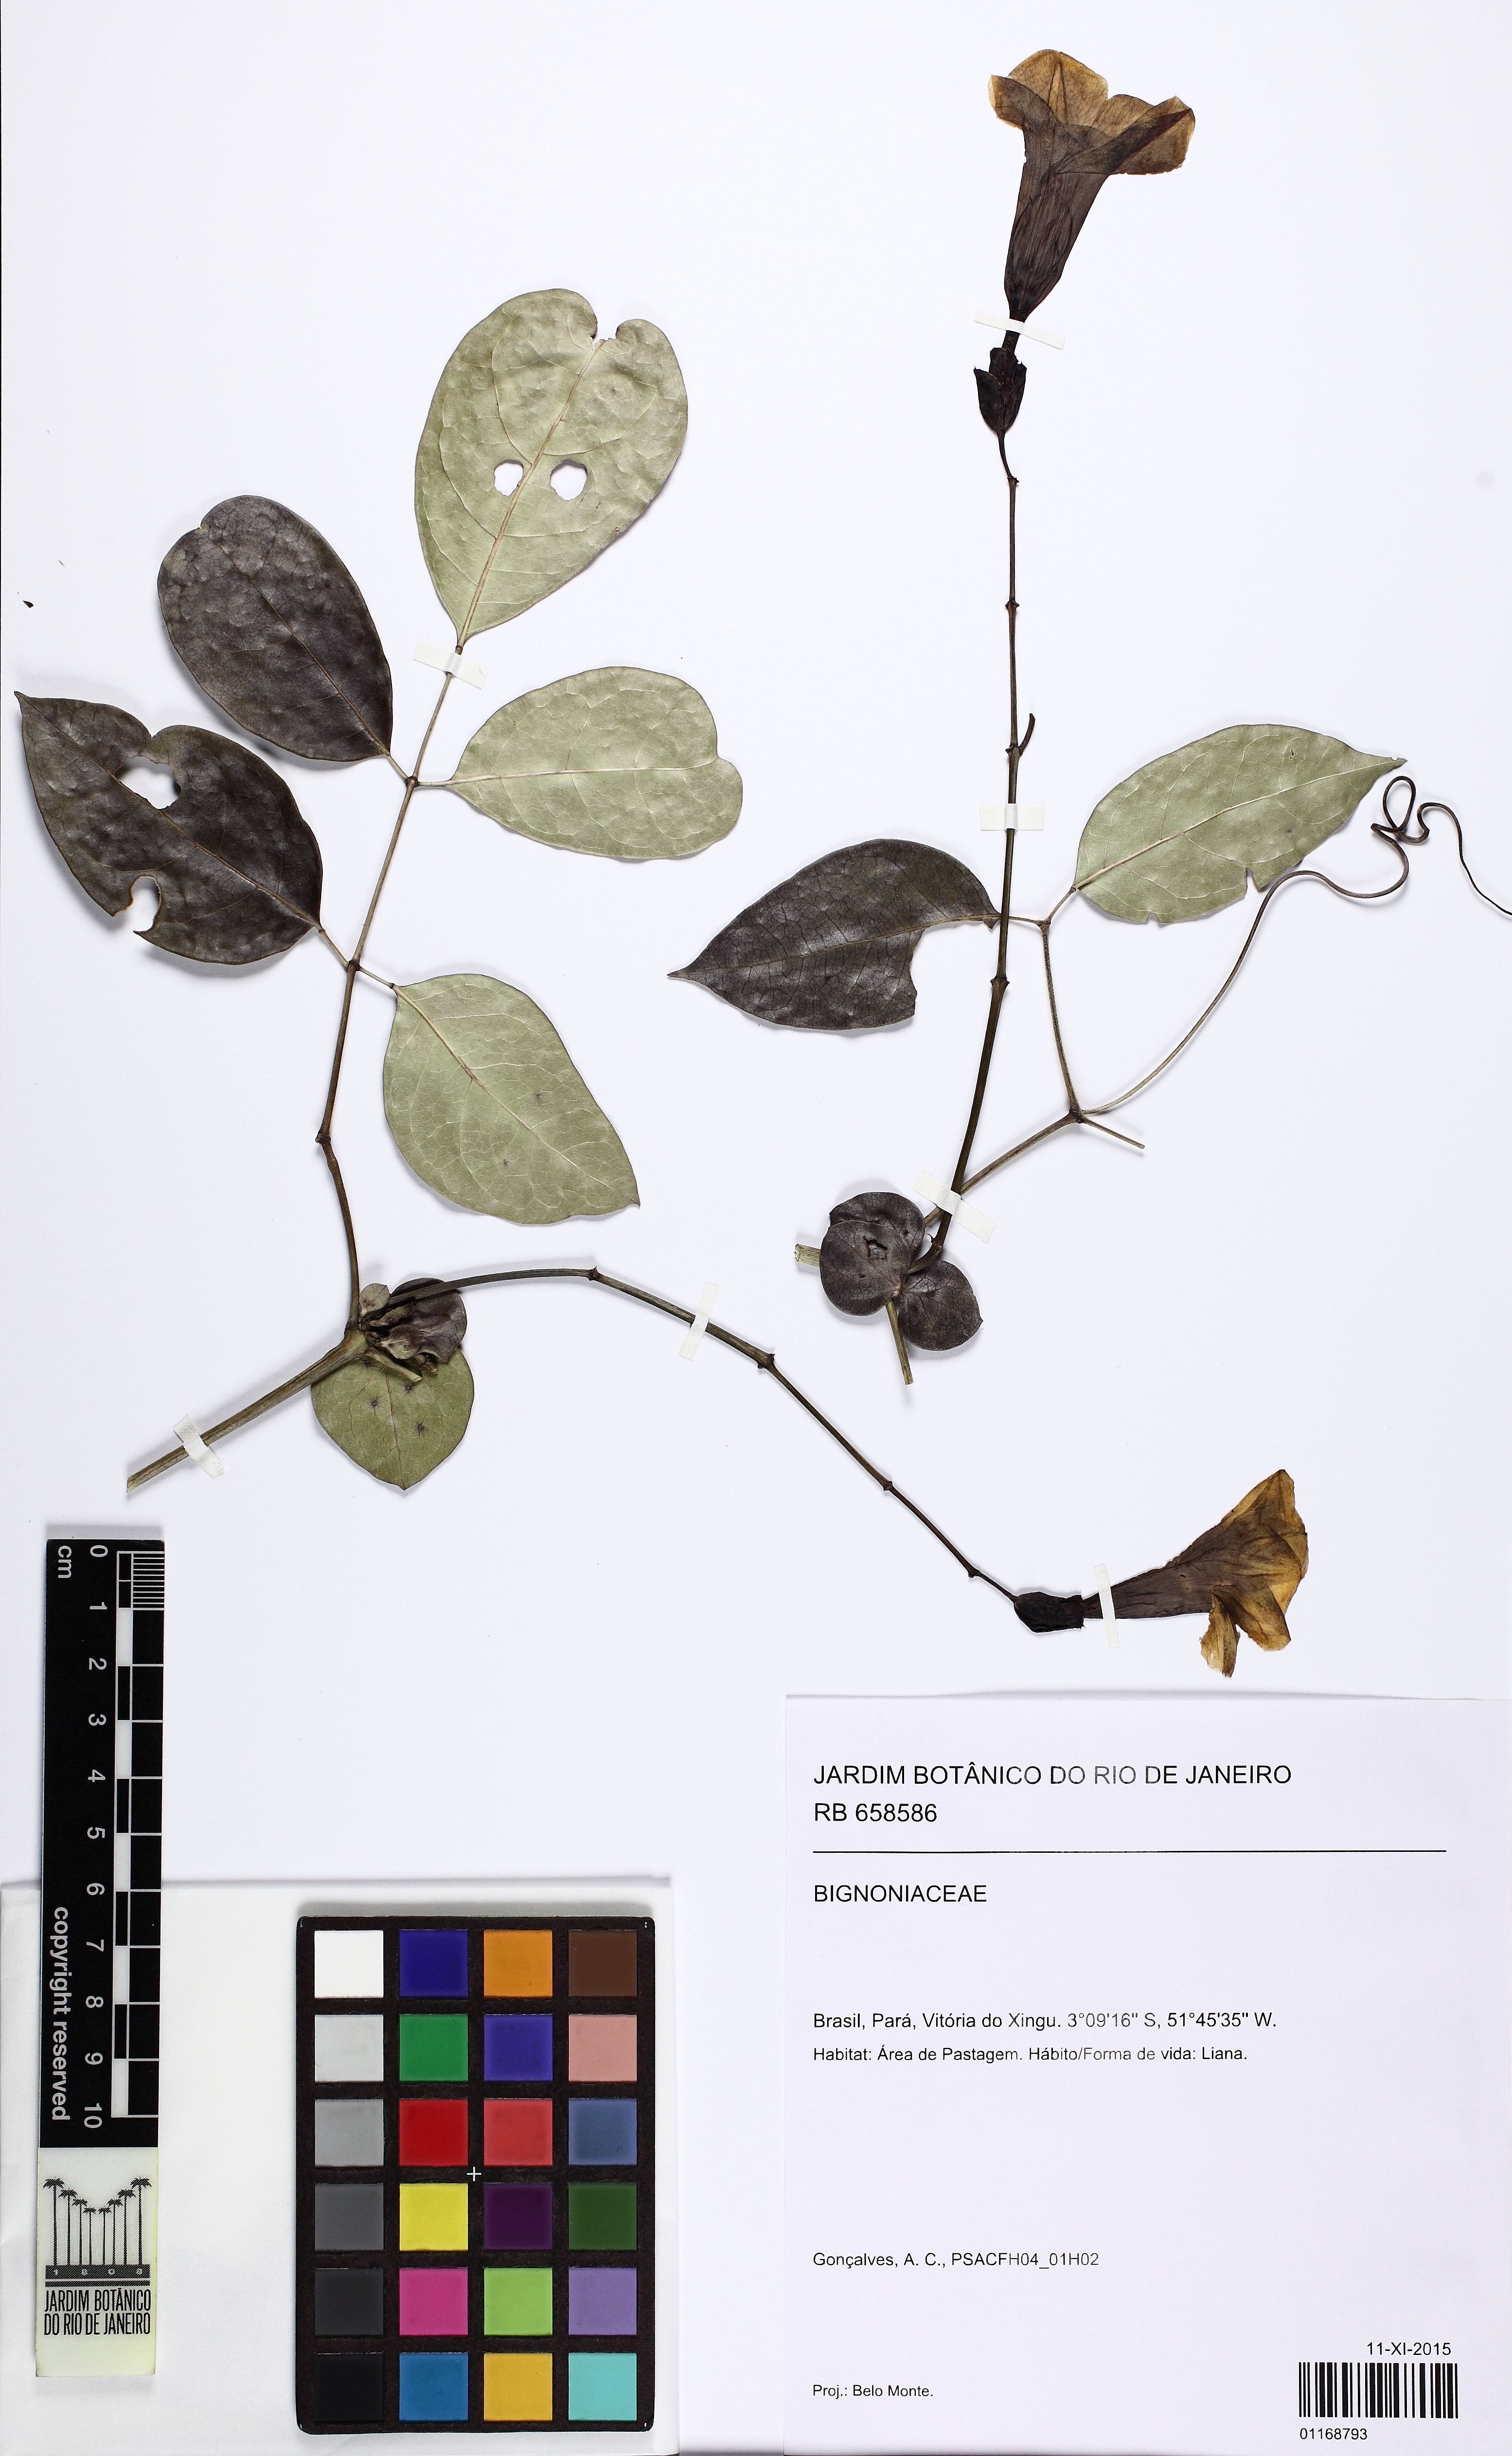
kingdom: Plantae
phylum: Tracheophyta
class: Magnoliopsida
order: Lamiales
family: Bignoniaceae
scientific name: Bignoniaceae
